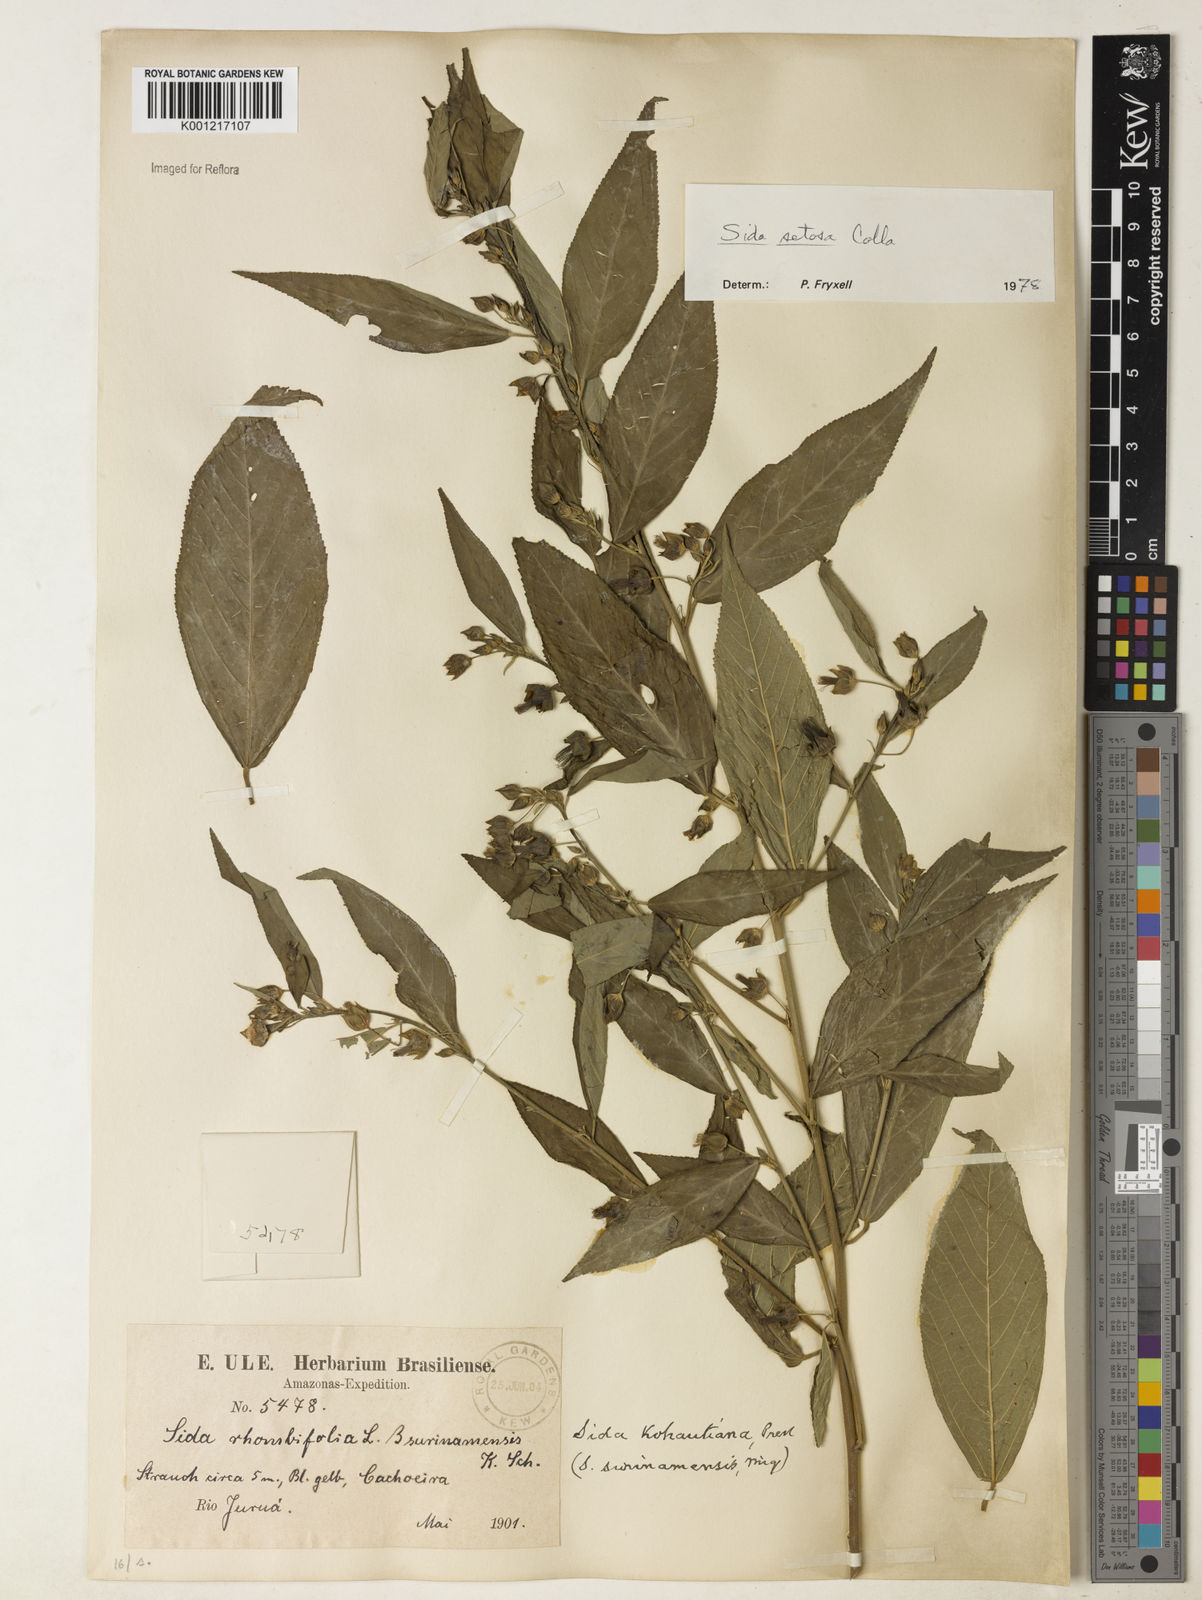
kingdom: Plantae
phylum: Tracheophyta
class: Magnoliopsida
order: Malvales
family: Malvaceae
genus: Sida
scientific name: Sida
